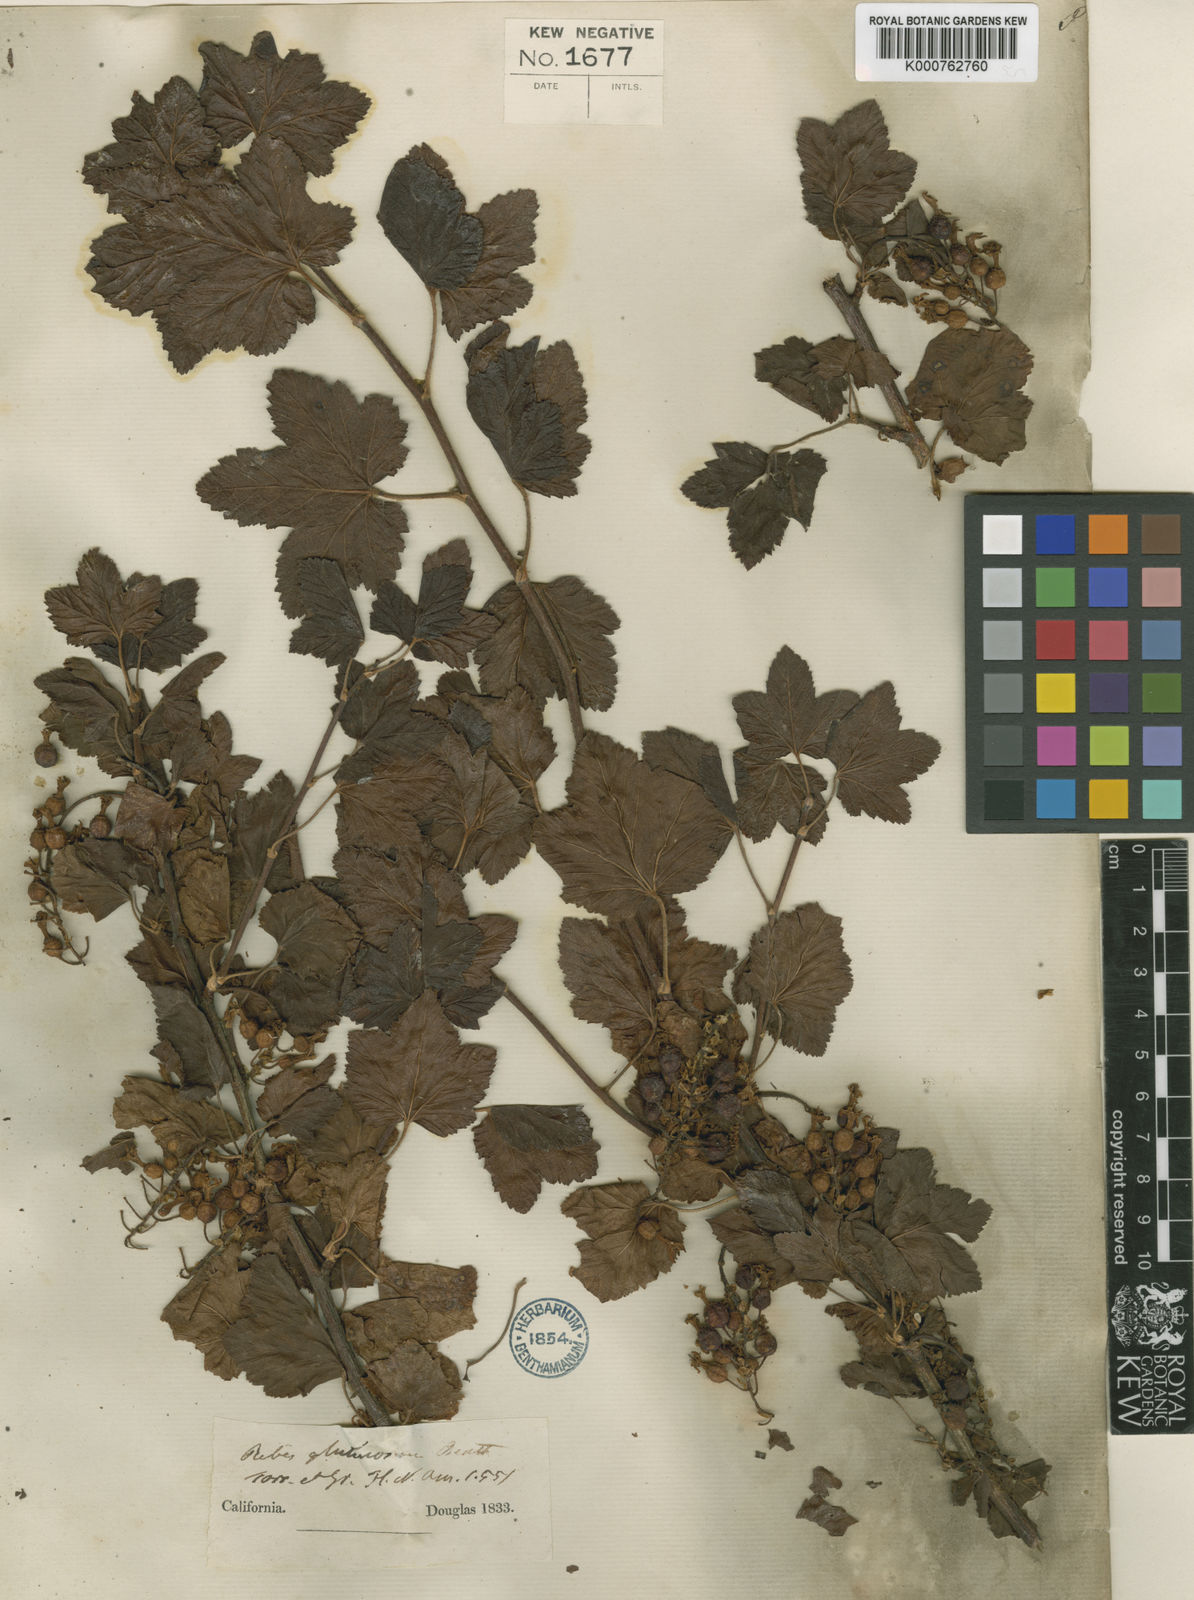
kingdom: Plantae
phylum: Tracheophyta
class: Magnoliopsida
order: Saxifragales
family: Grossulariaceae
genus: Ribes
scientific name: Ribes sanguineum
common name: Flowering currant
